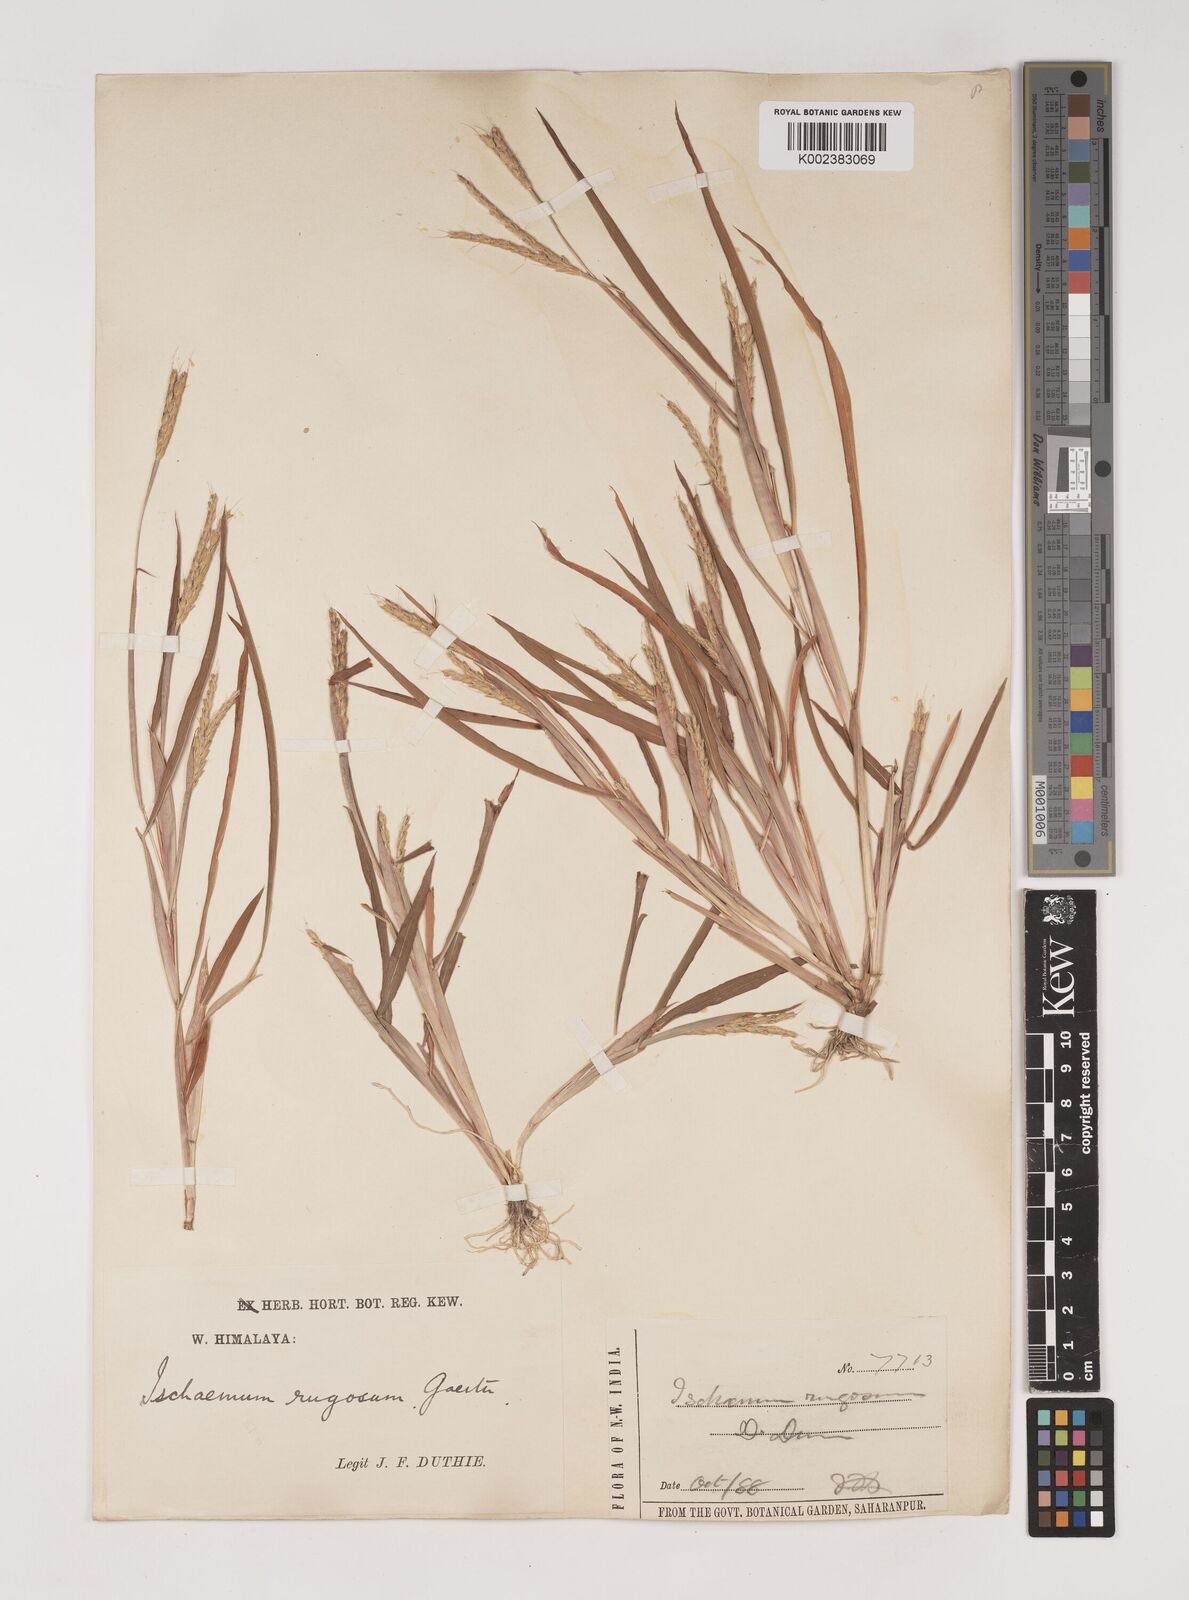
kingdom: Plantae
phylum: Tracheophyta
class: Liliopsida
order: Poales
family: Poaceae
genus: Ischaemum
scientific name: Ischaemum rugosum
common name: Saramatta grass
